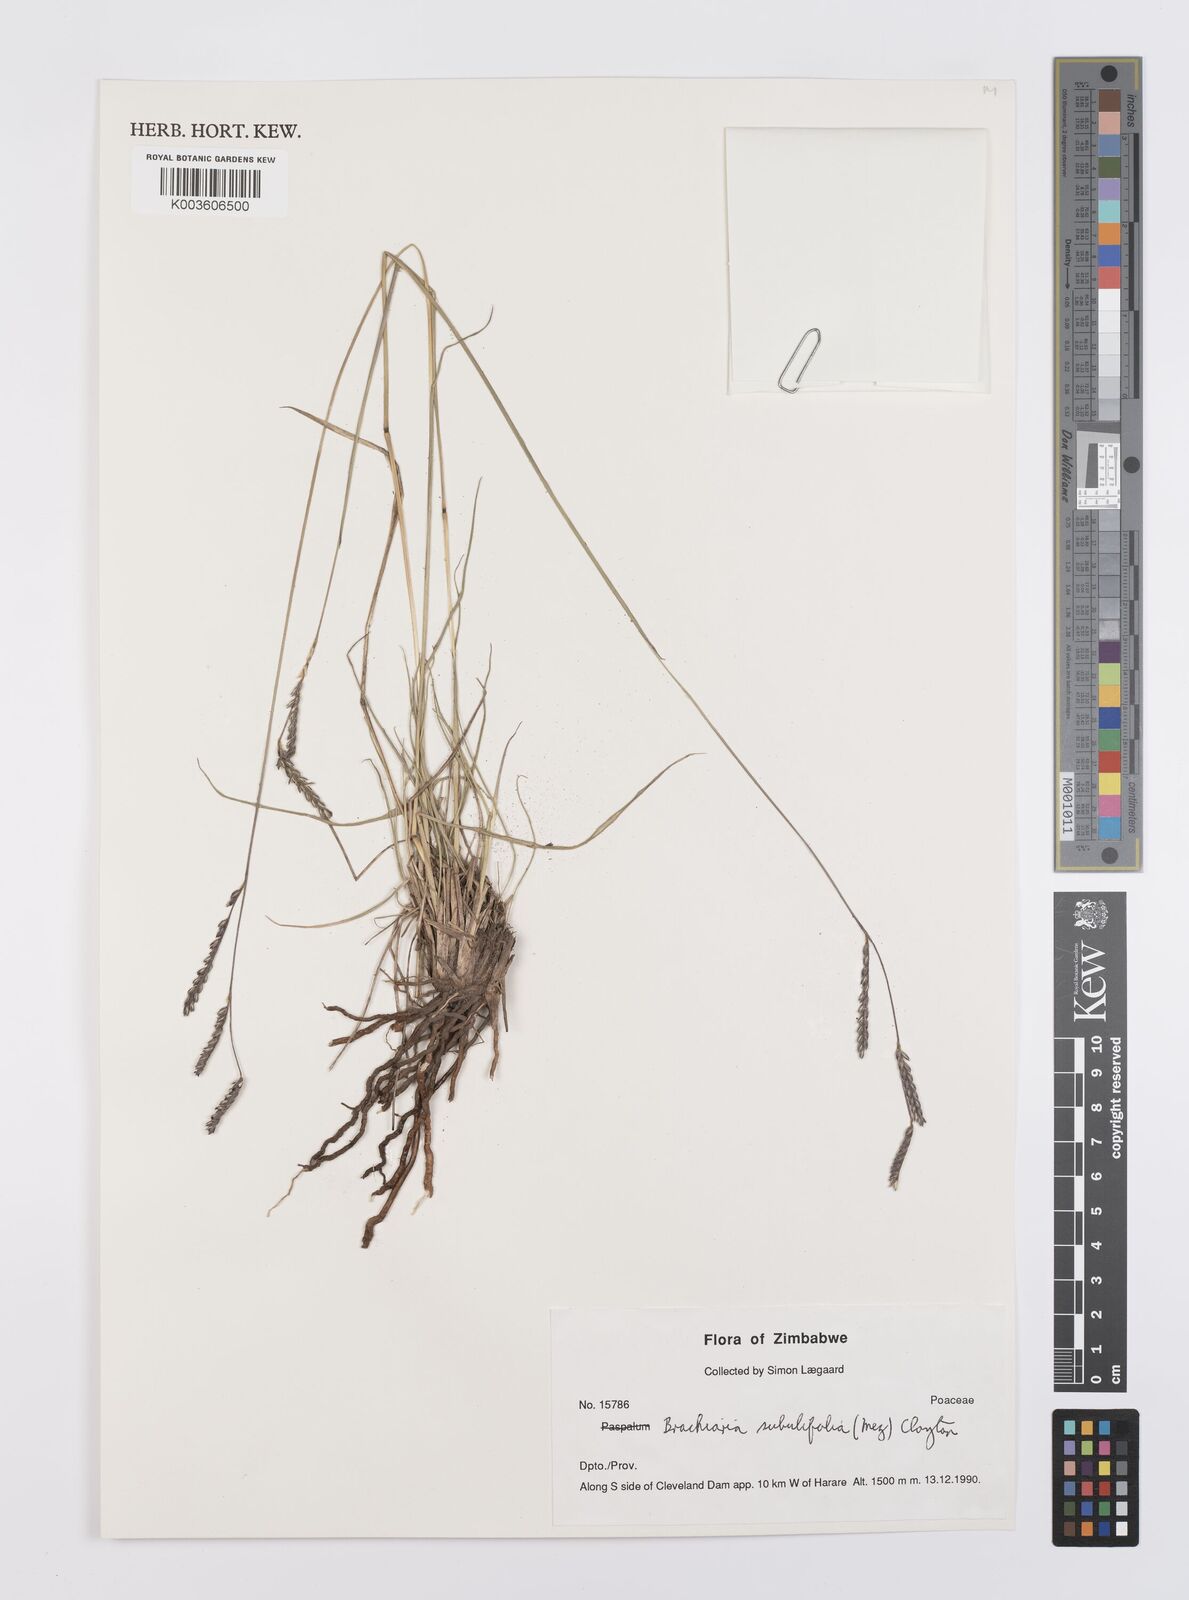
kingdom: Plantae
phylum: Tracheophyta
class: Liliopsida
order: Poales
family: Poaceae
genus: Urochloa
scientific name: Urochloa subulifolia
